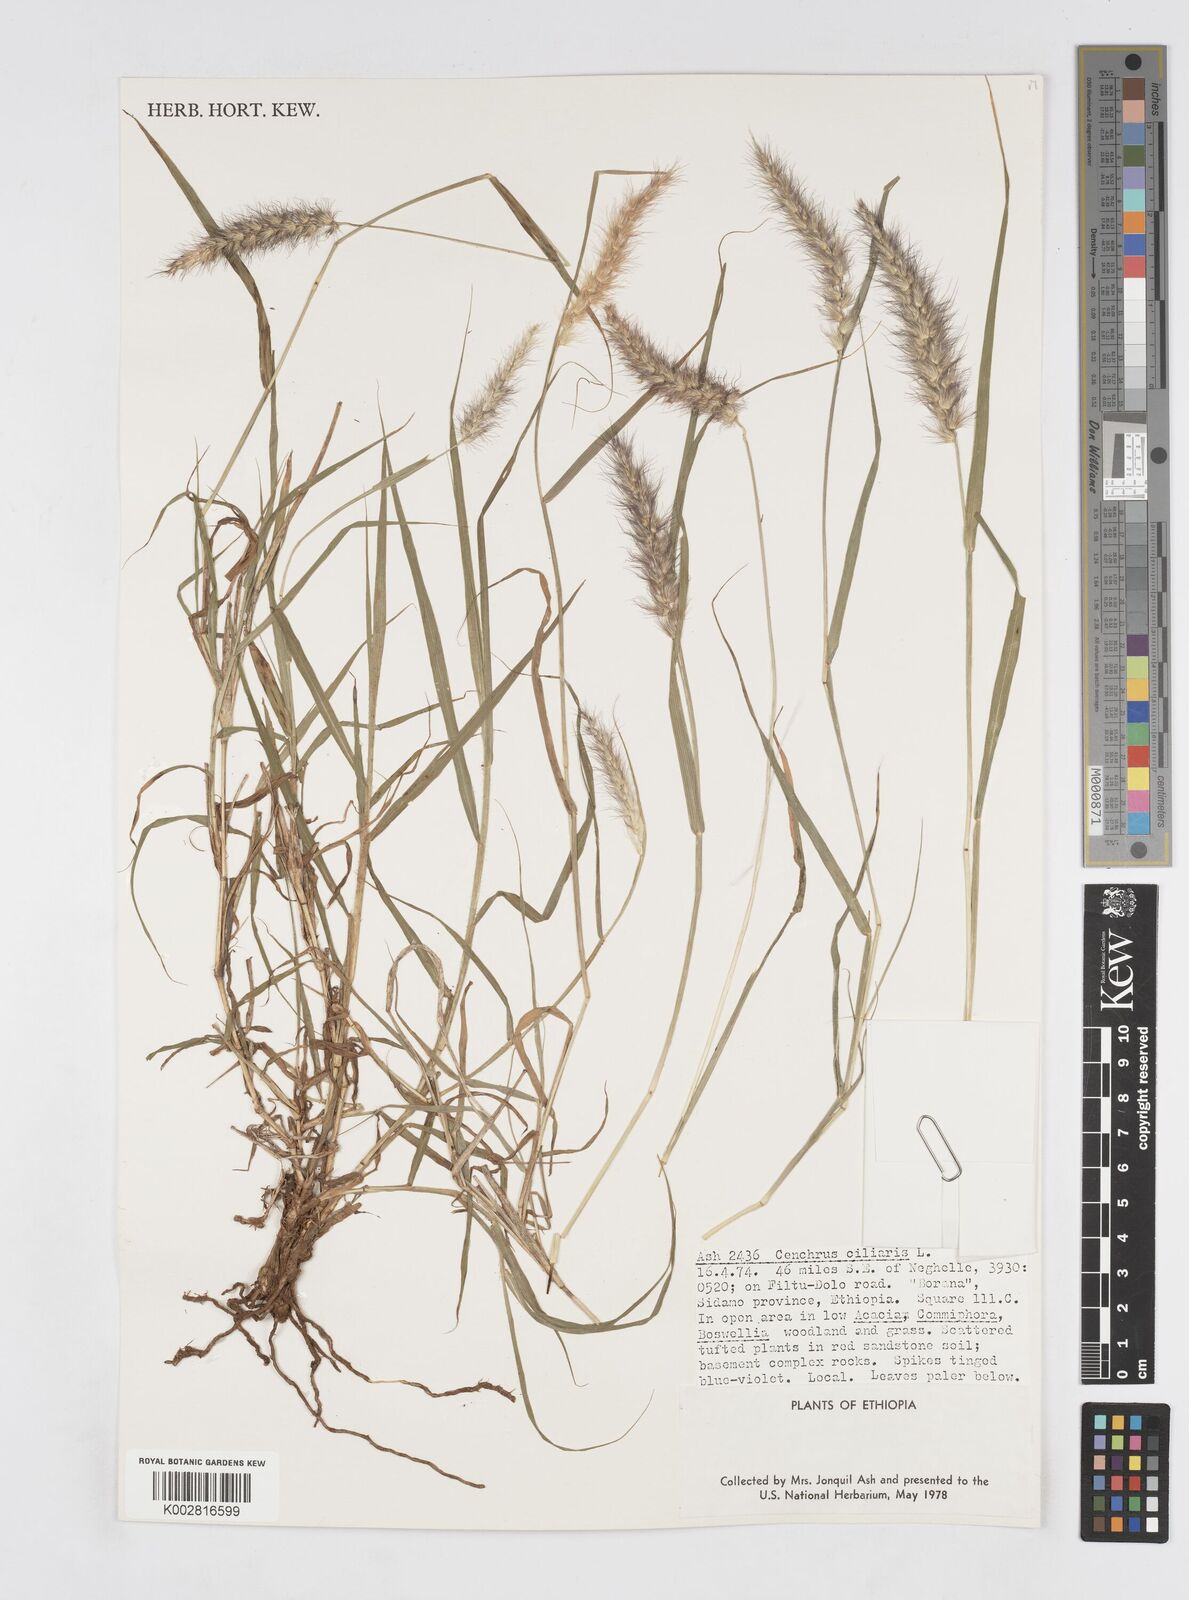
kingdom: Plantae
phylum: Tracheophyta
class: Liliopsida
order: Poales
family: Poaceae
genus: Cenchrus
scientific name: Cenchrus ciliaris
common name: Buffelgrass
